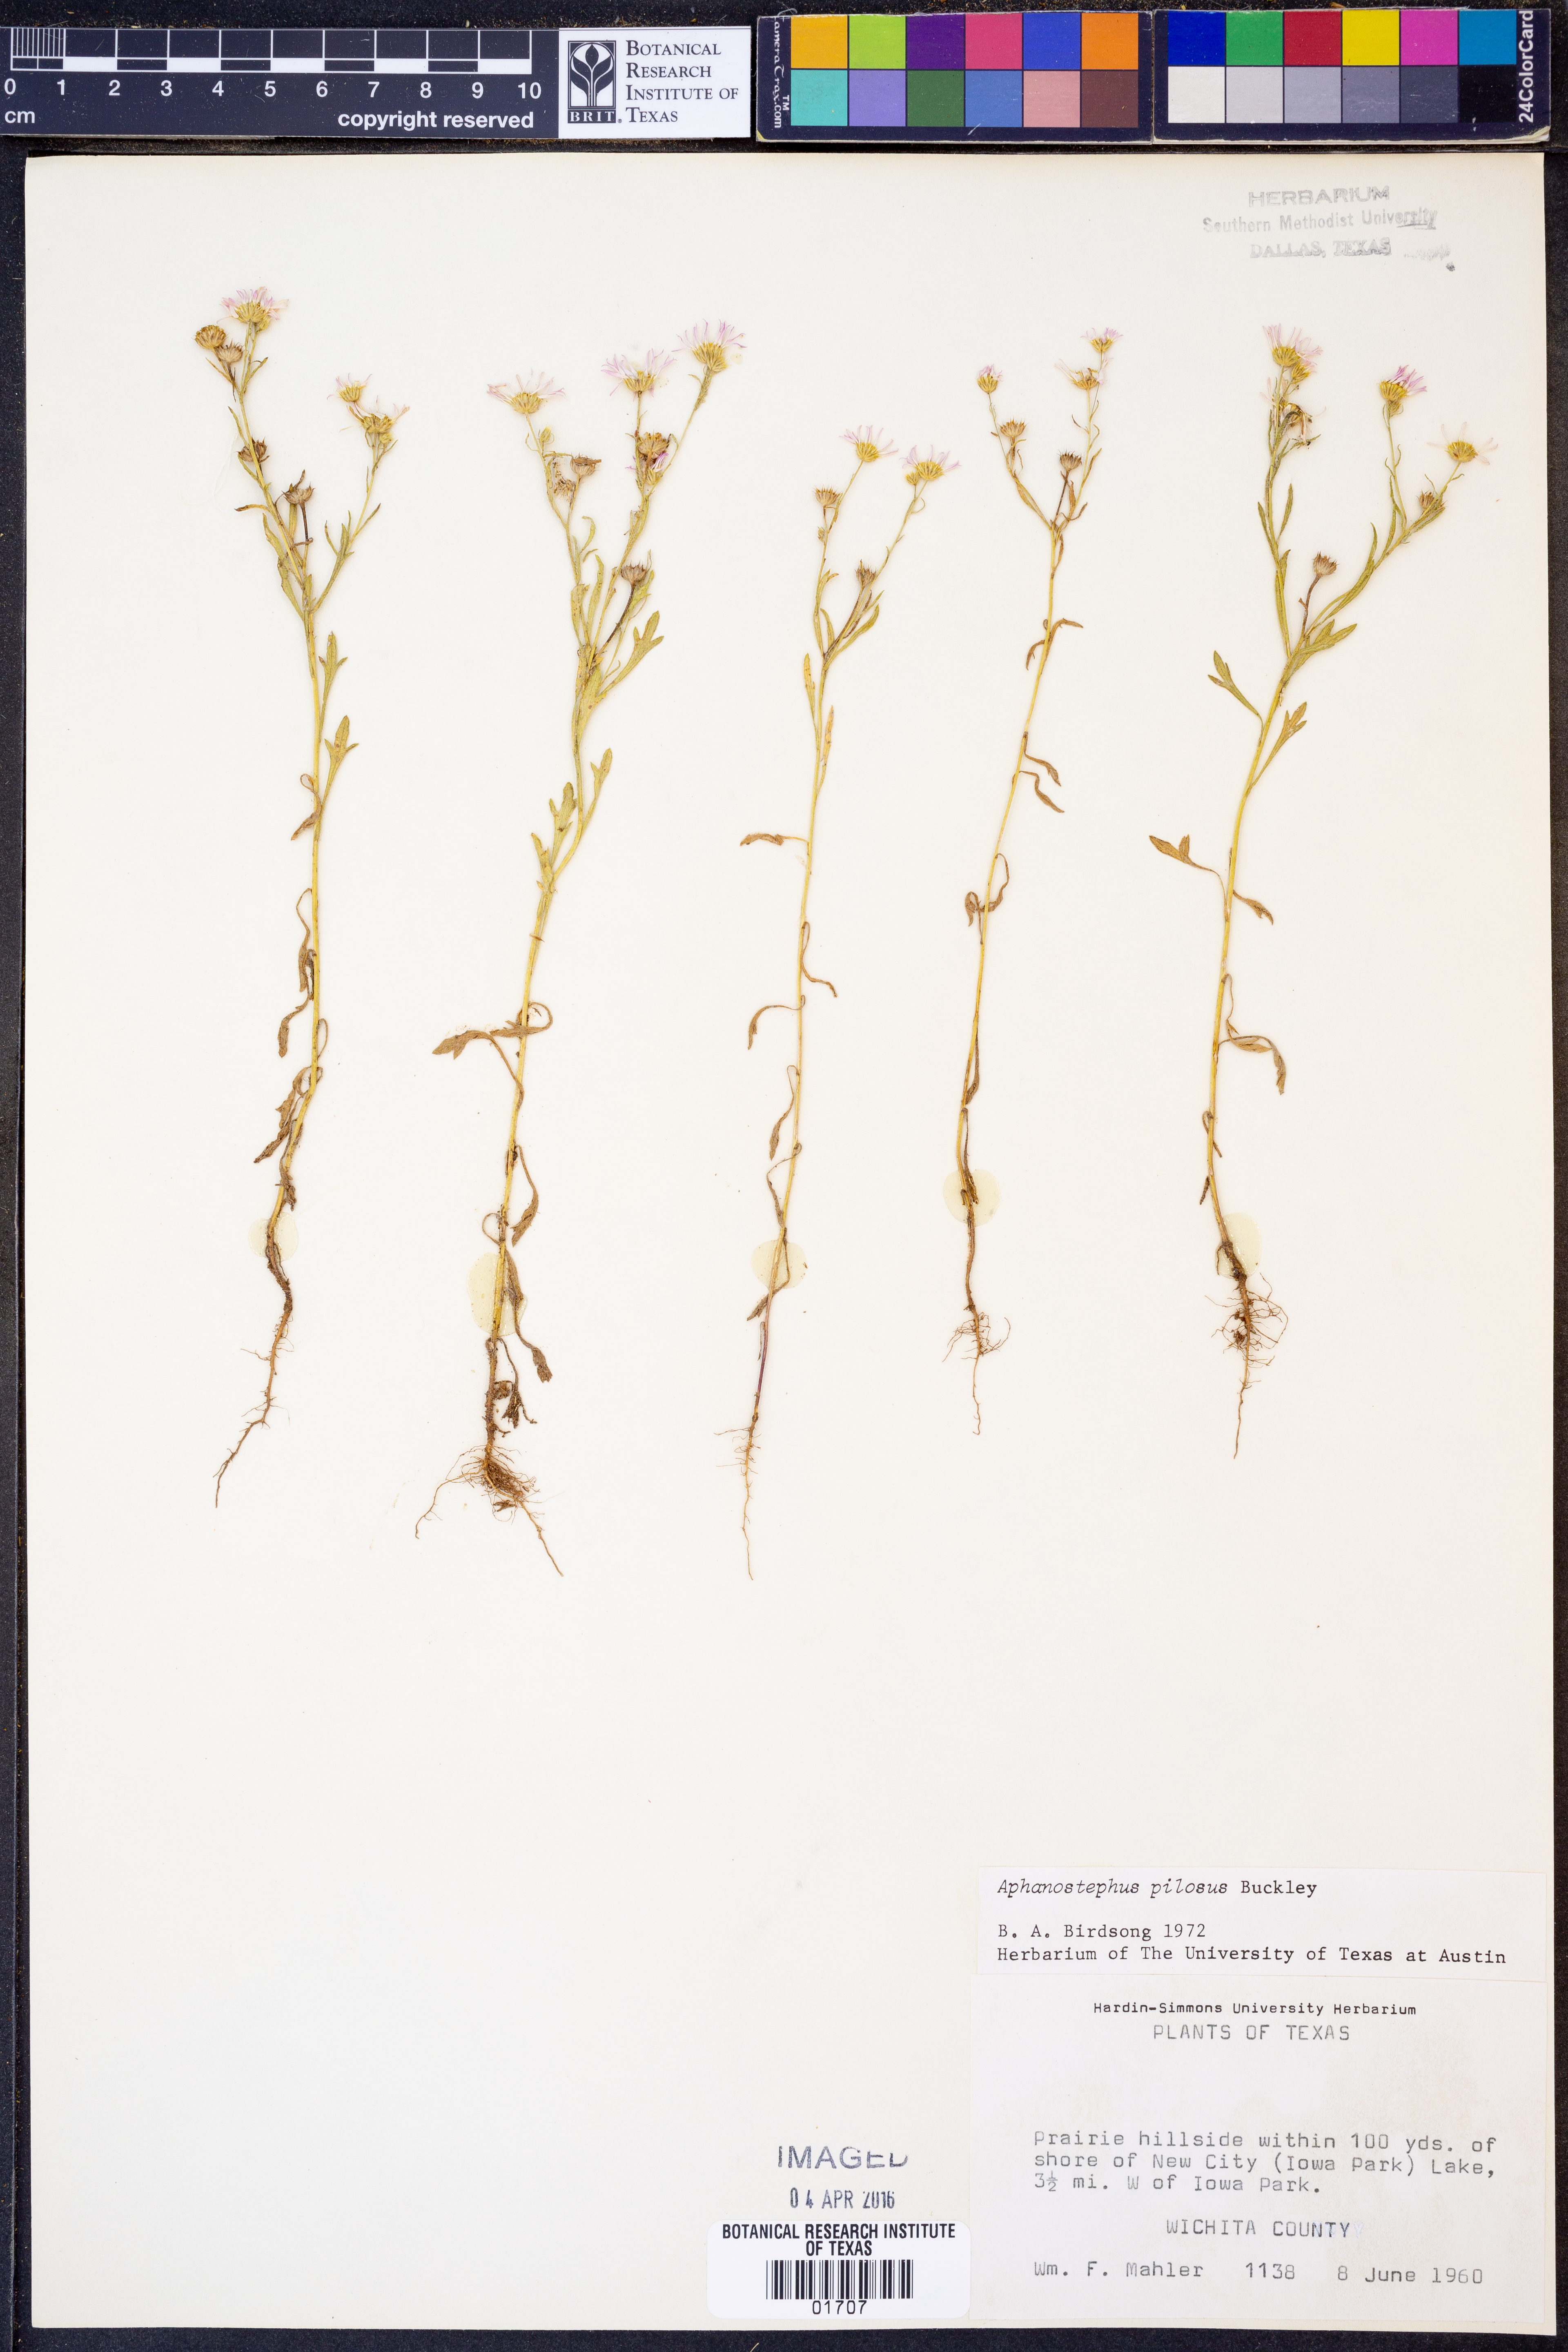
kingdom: Plantae
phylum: Tracheophyta
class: Magnoliopsida
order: Asterales
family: Asteraceae
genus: Aphanostephus
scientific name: Aphanostephus pilosus
